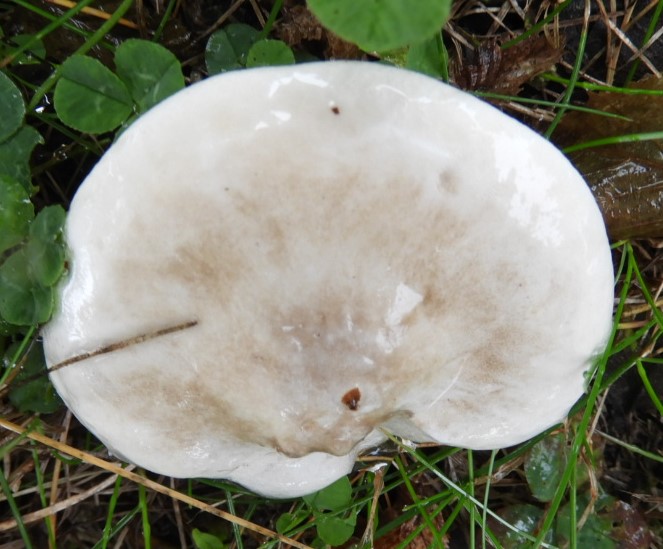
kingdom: Fungi
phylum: Basidiomycota
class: Agaricomycetes
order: Agaricales
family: Entolomataceae
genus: Clitopilus
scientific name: Clitopilus prunulus
